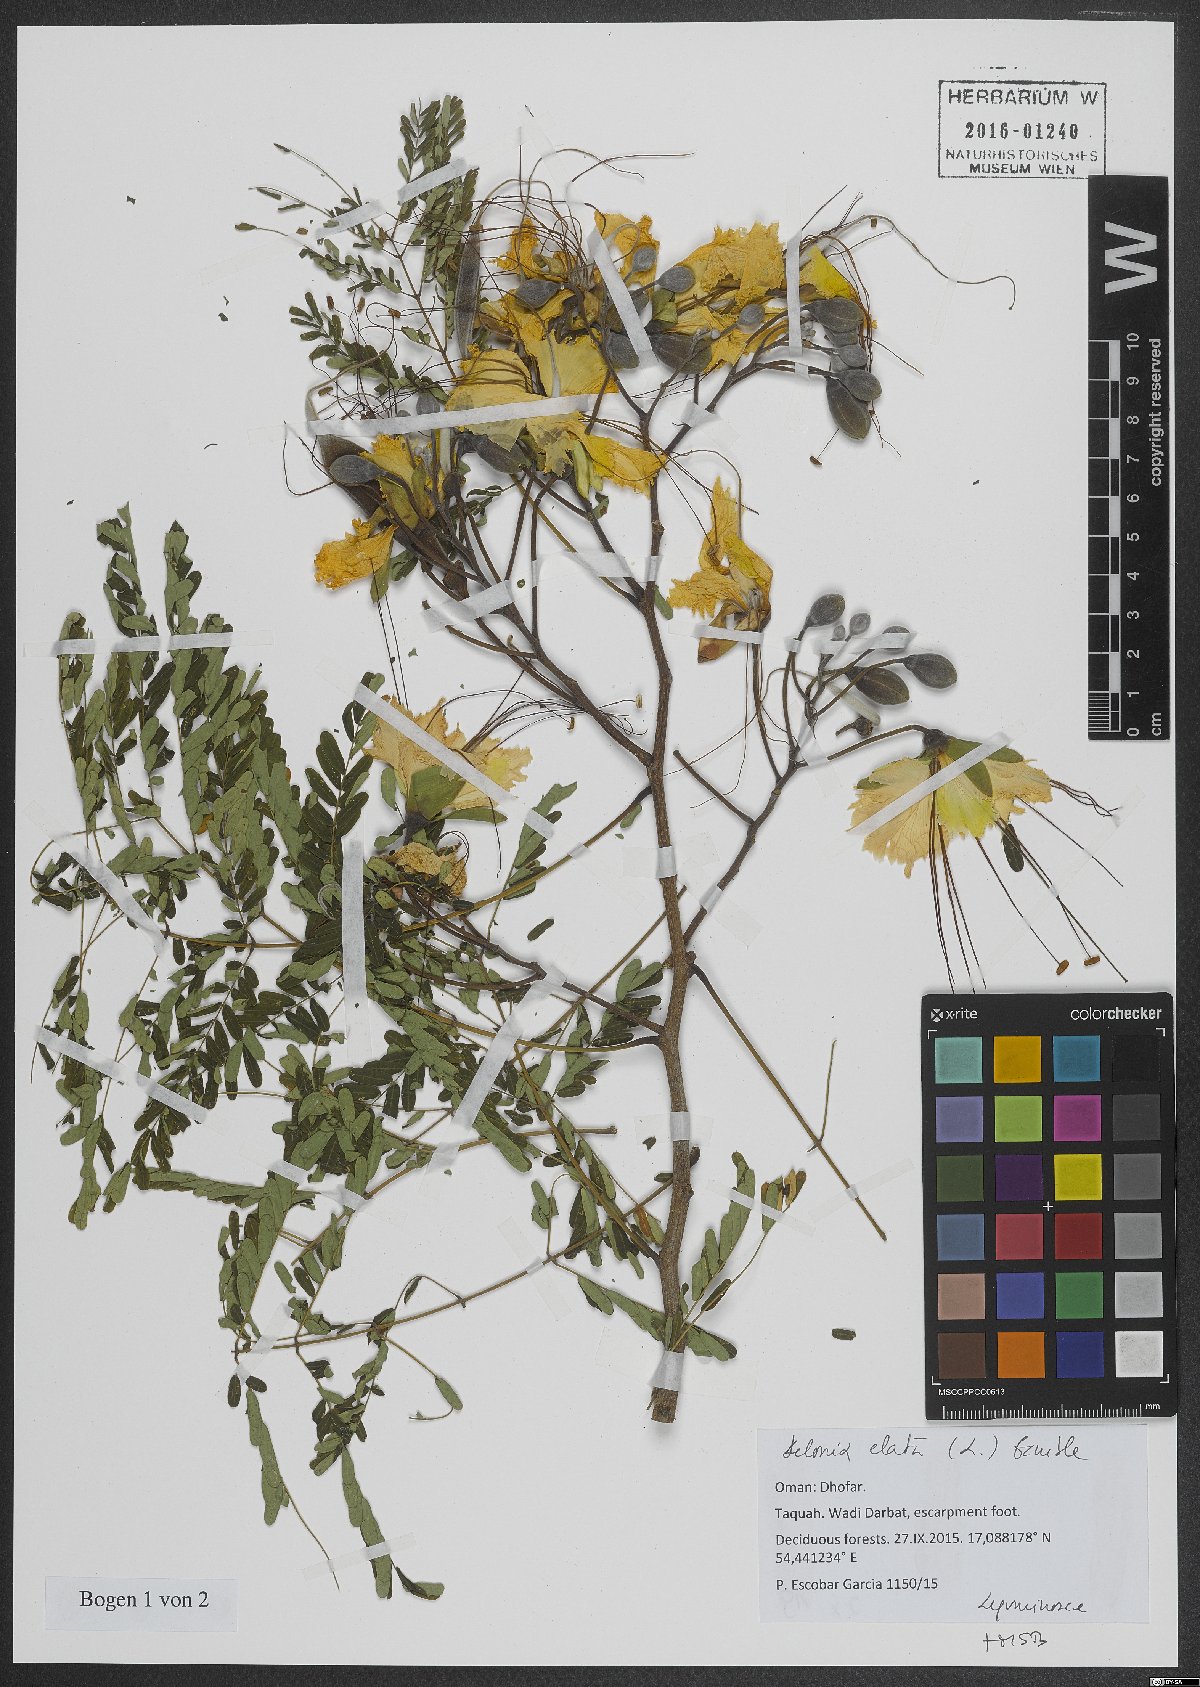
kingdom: Plantae
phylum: Tracheophyta
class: Magnoliopsida
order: Fabales
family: Fabaceae
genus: Delonix
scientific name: Delonix elata
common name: Creamy peacock flower
